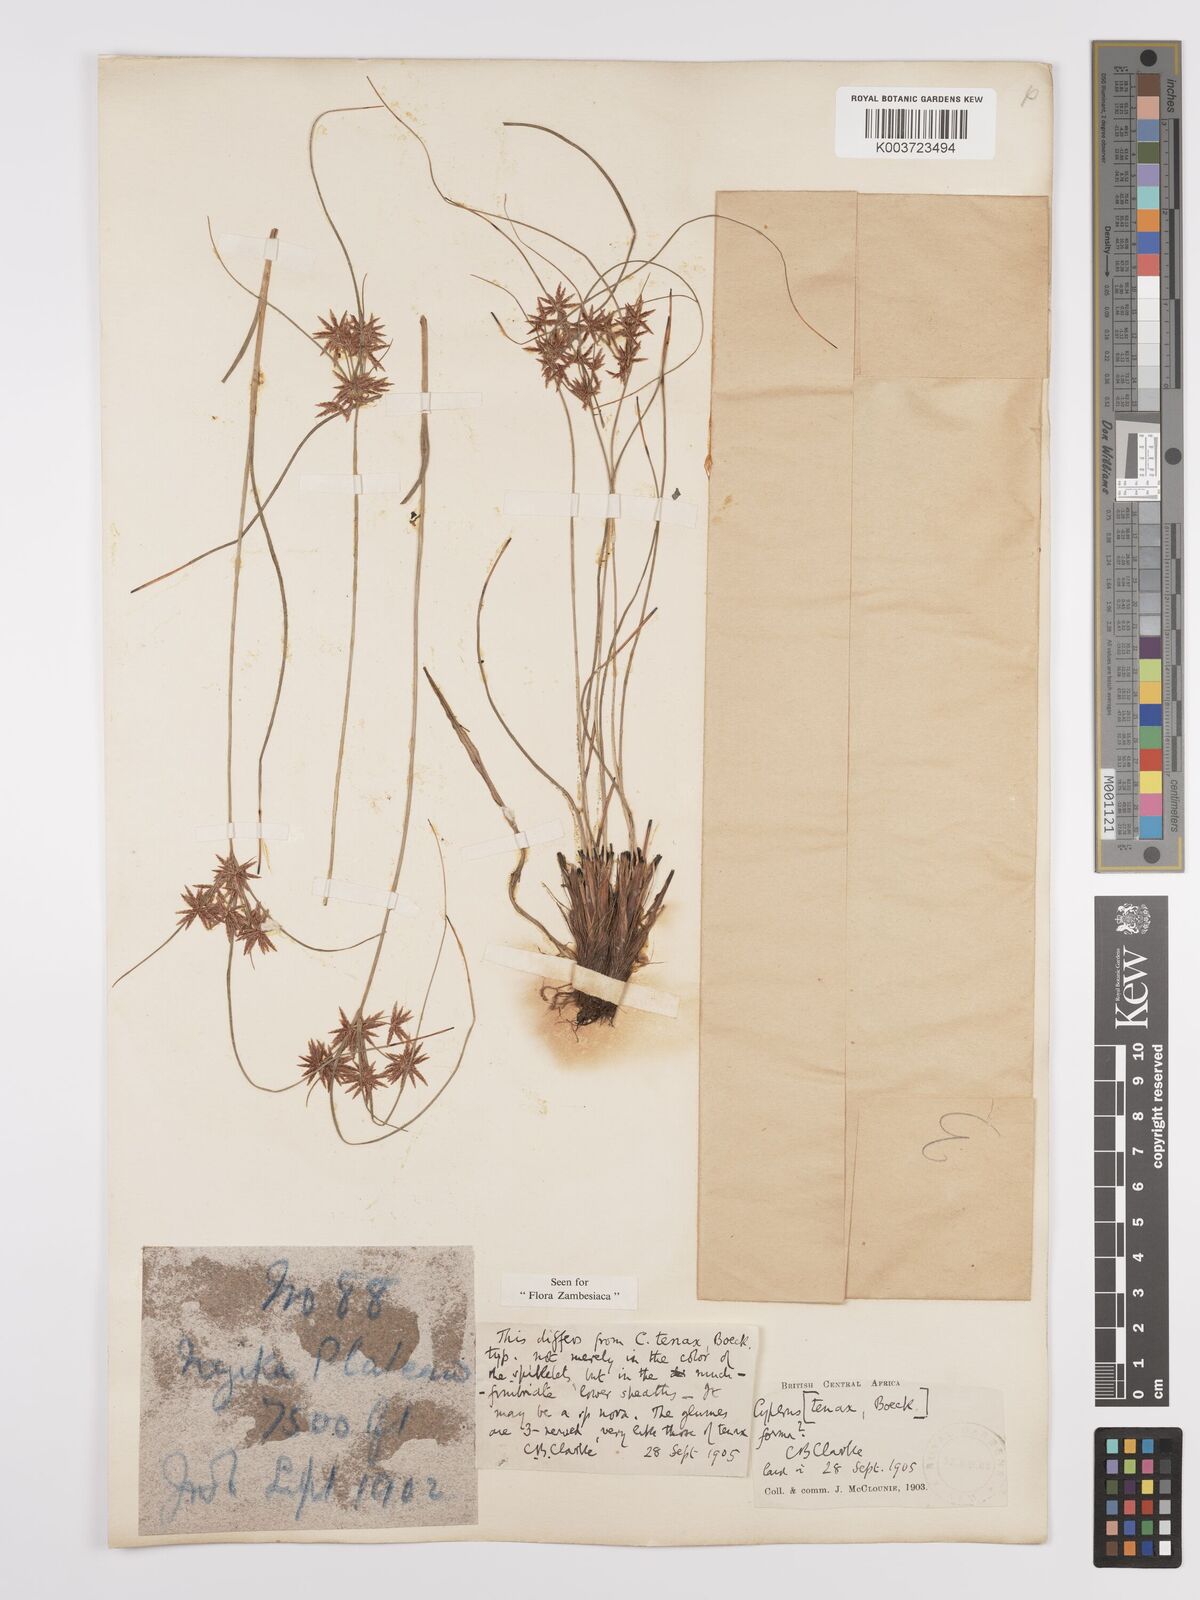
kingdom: Plantae
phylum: Tracheophyta
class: Liliopsida
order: Poales
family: Cyperaceae
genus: Cyperus
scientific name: Cyperus tenax
